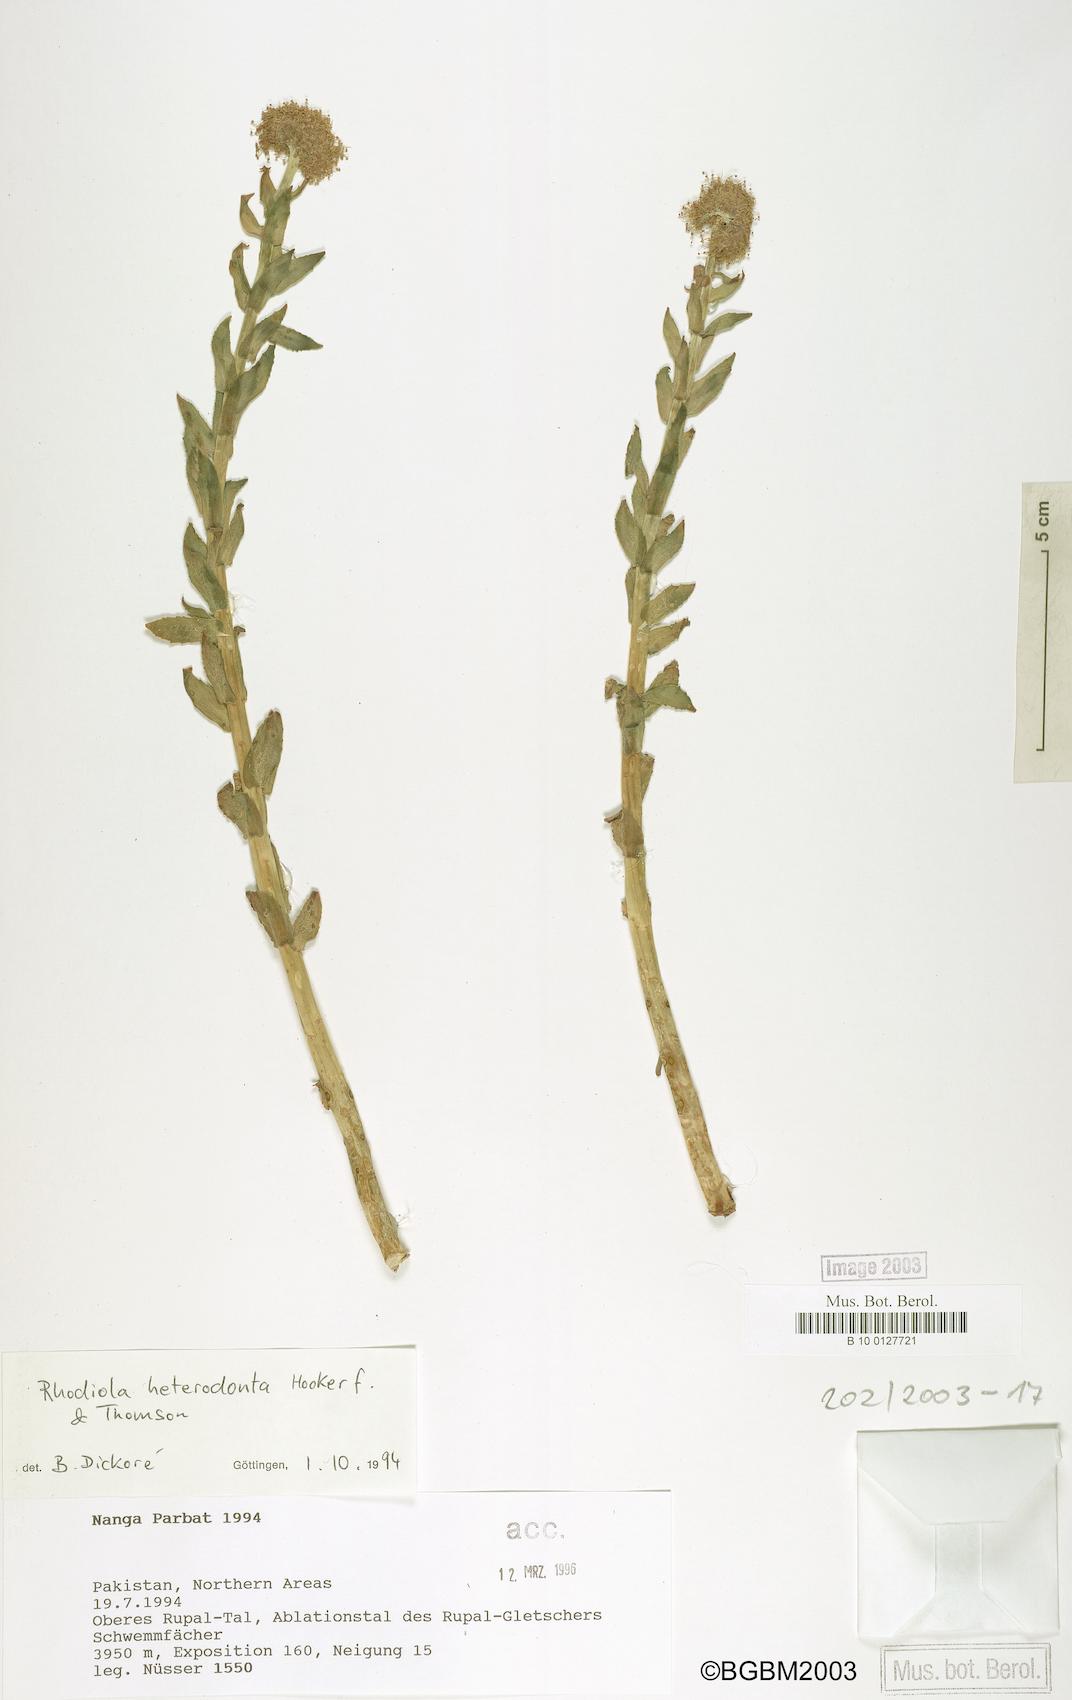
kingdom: Plantae
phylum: Tracheophyta
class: Magnoliopsida
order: Saxifragales
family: Crassulaceae
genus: Rhodiola
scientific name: Rhodiola heterodonta
